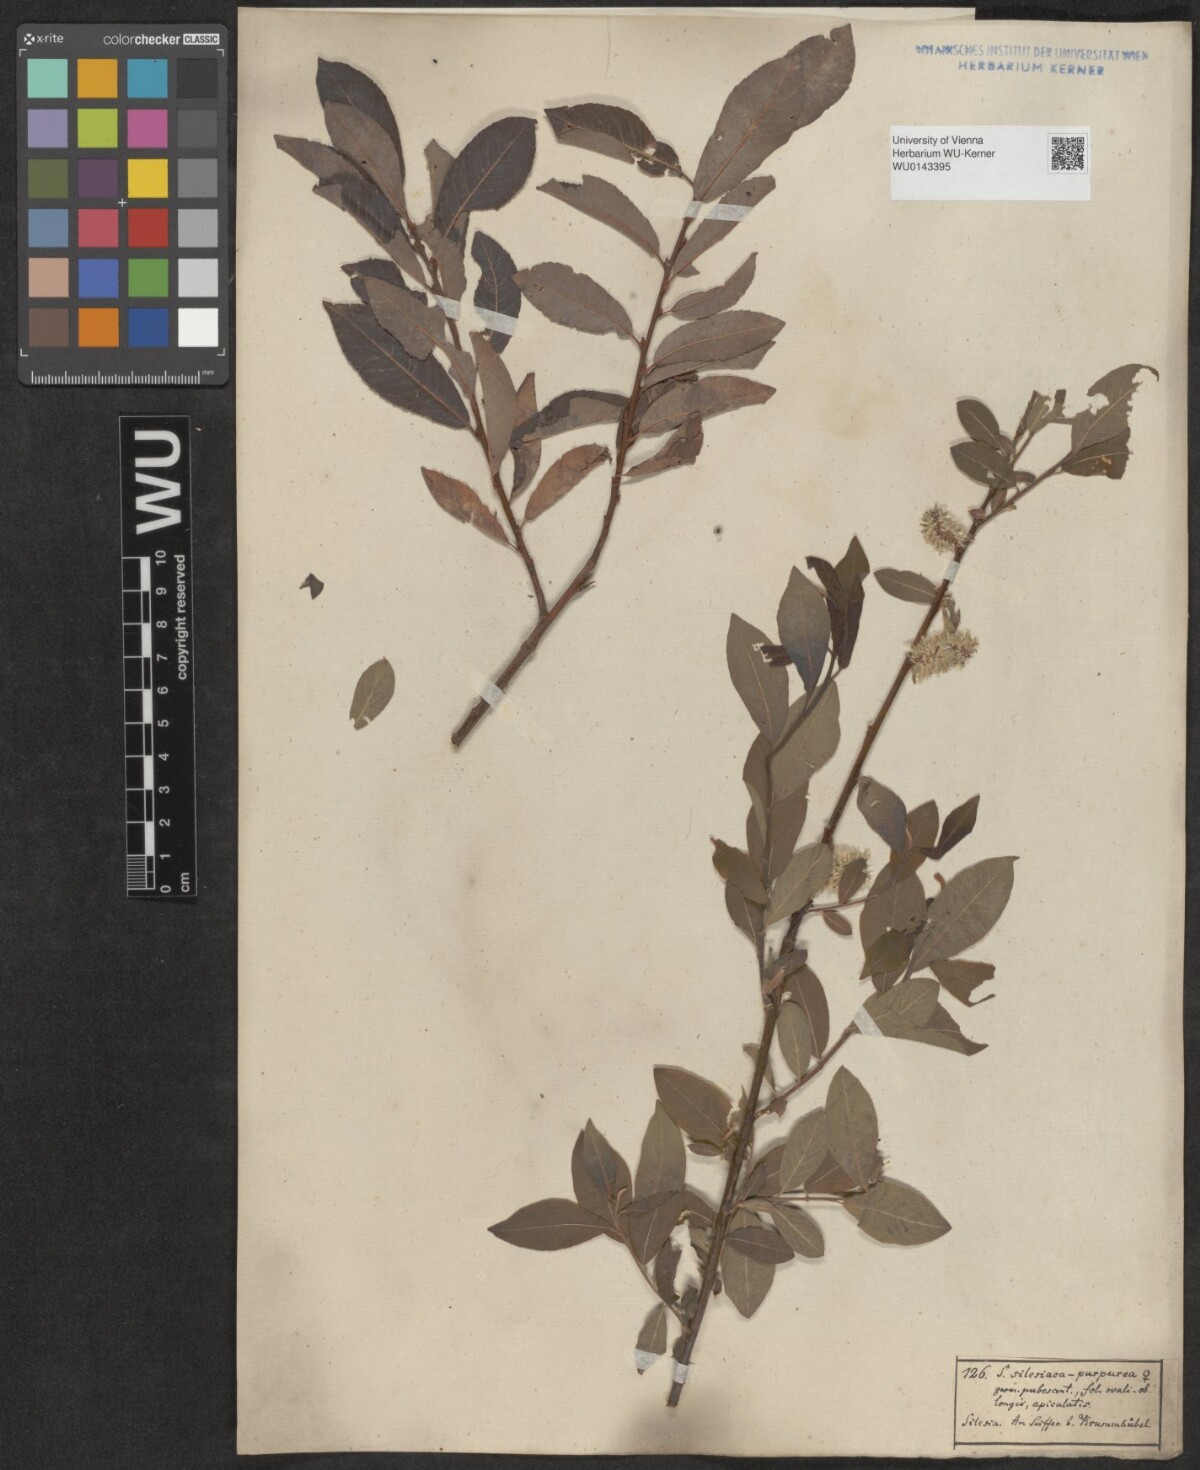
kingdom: Plantae
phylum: Tracheophyta
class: Magnoliopsida
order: Malpighiales
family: Salicaceae
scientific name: Salicaceae
